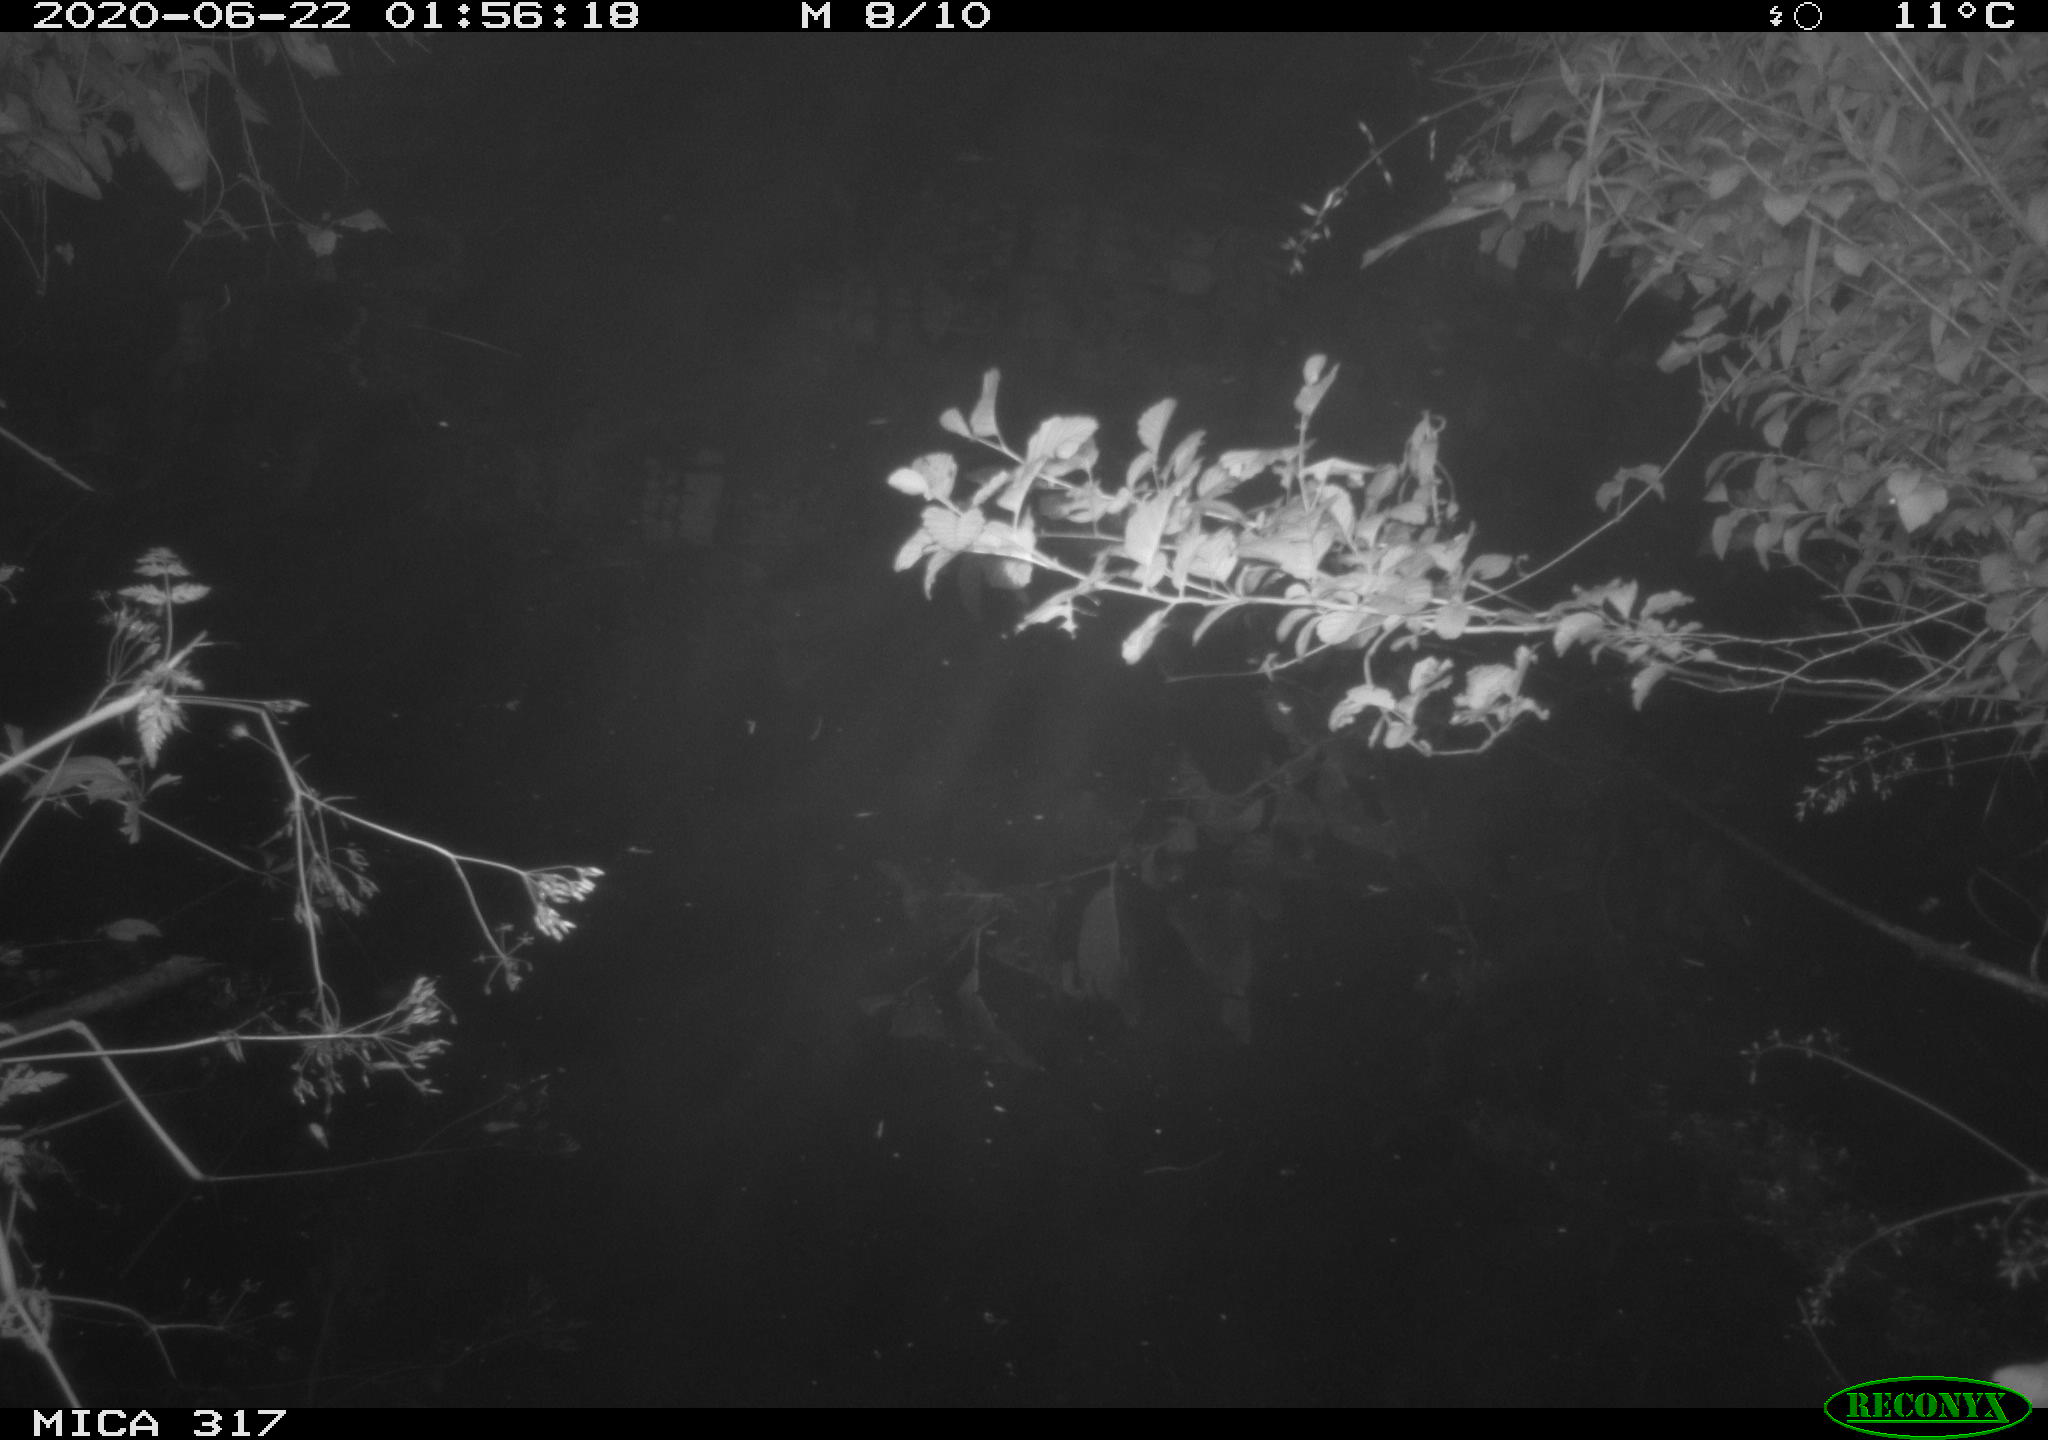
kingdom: Animalia
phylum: Chordata
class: Aves
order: Anseriformes
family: Anatidae
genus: Anas
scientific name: Anas platyrhynchos
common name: Mallard
